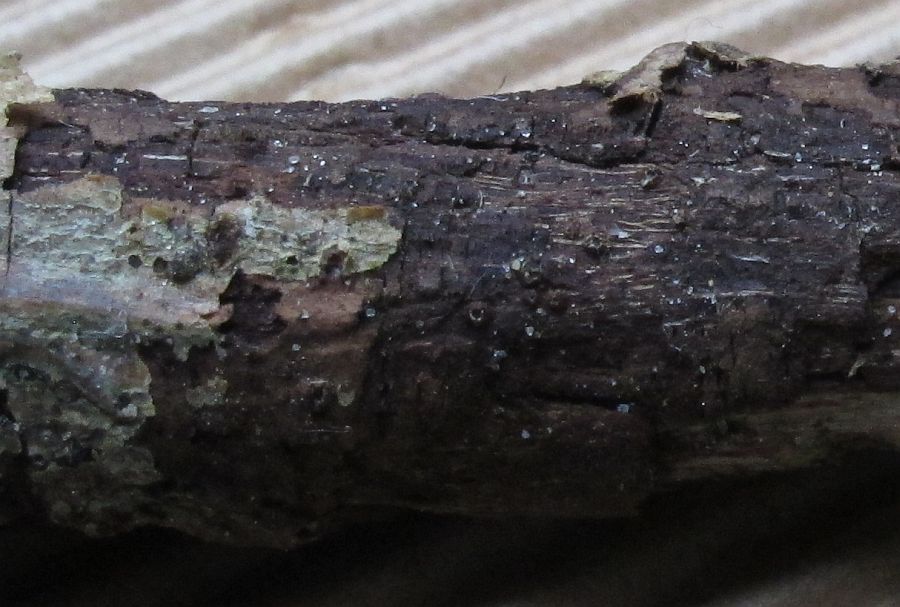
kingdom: Fungi
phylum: Ascomycota
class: Lecanoromycetes
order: Ostropales
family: Stictidaceae
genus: Karstenia
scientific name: Karstenia rhopaloides
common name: grårosa barkhul
